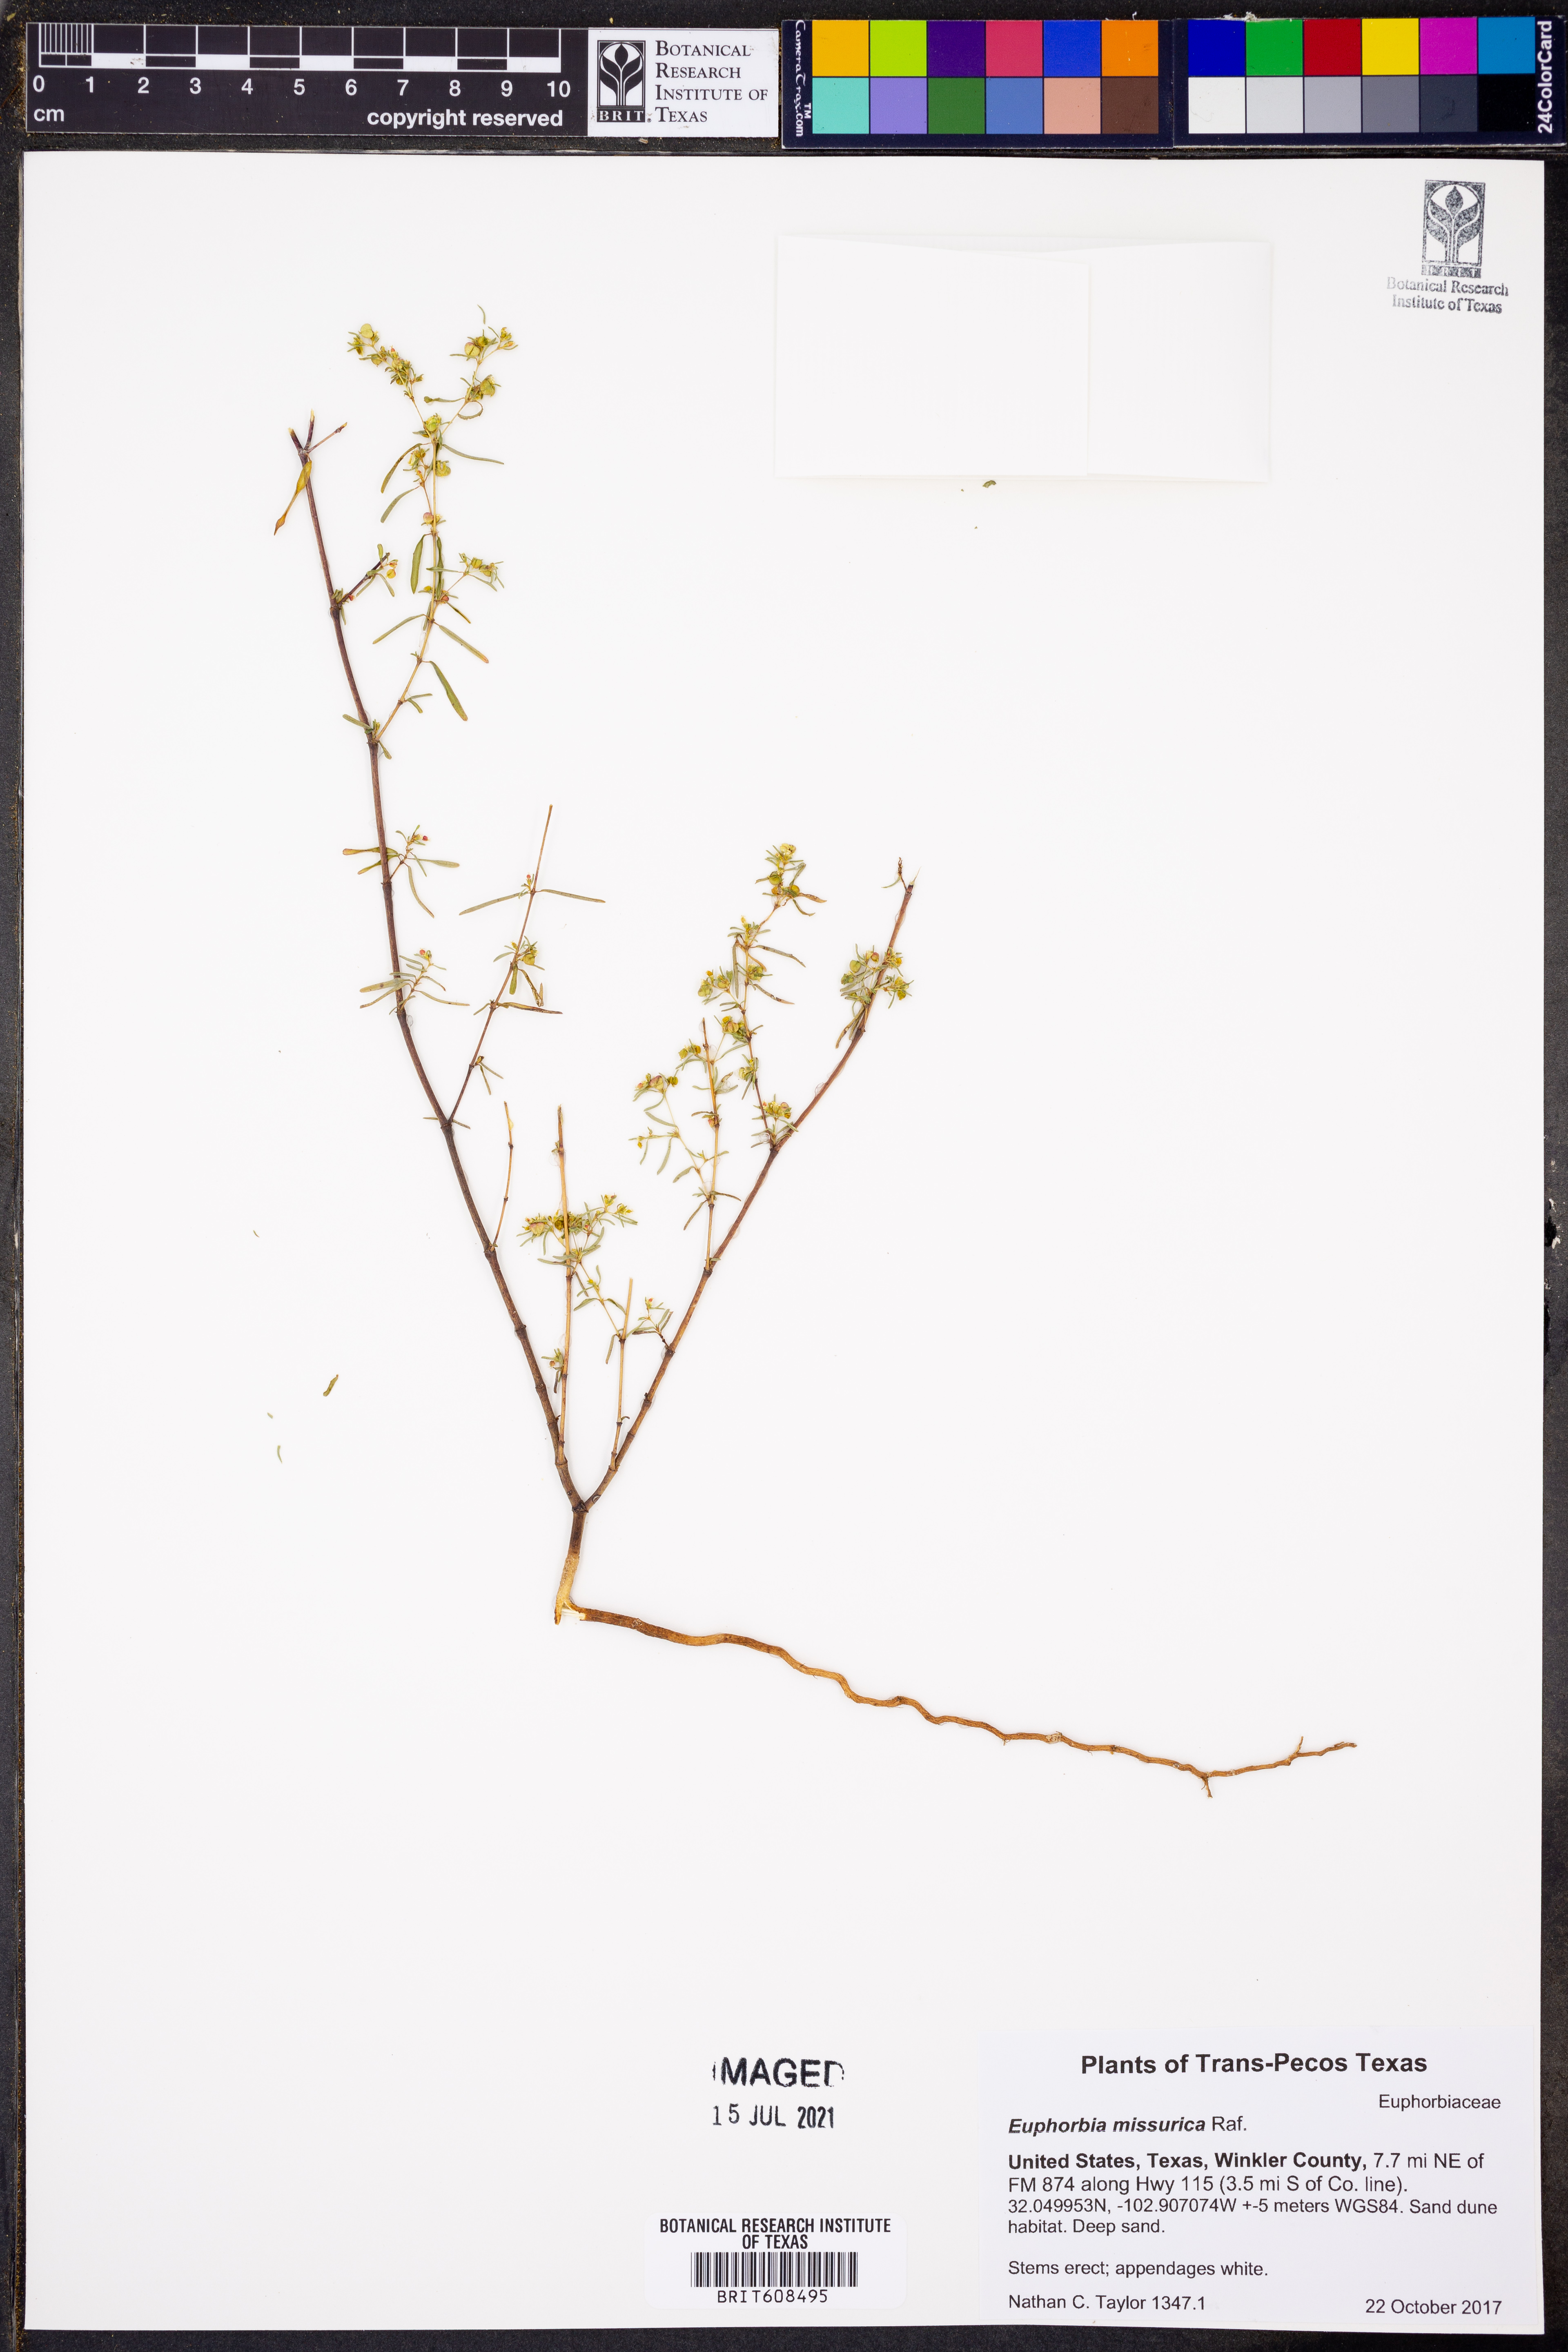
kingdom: Plantae
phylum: Tracheophyta
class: Magnoliopsida
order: Malpighiales
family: Euphorbiaceae
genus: Euphorbia
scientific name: Euphorbia missurica
